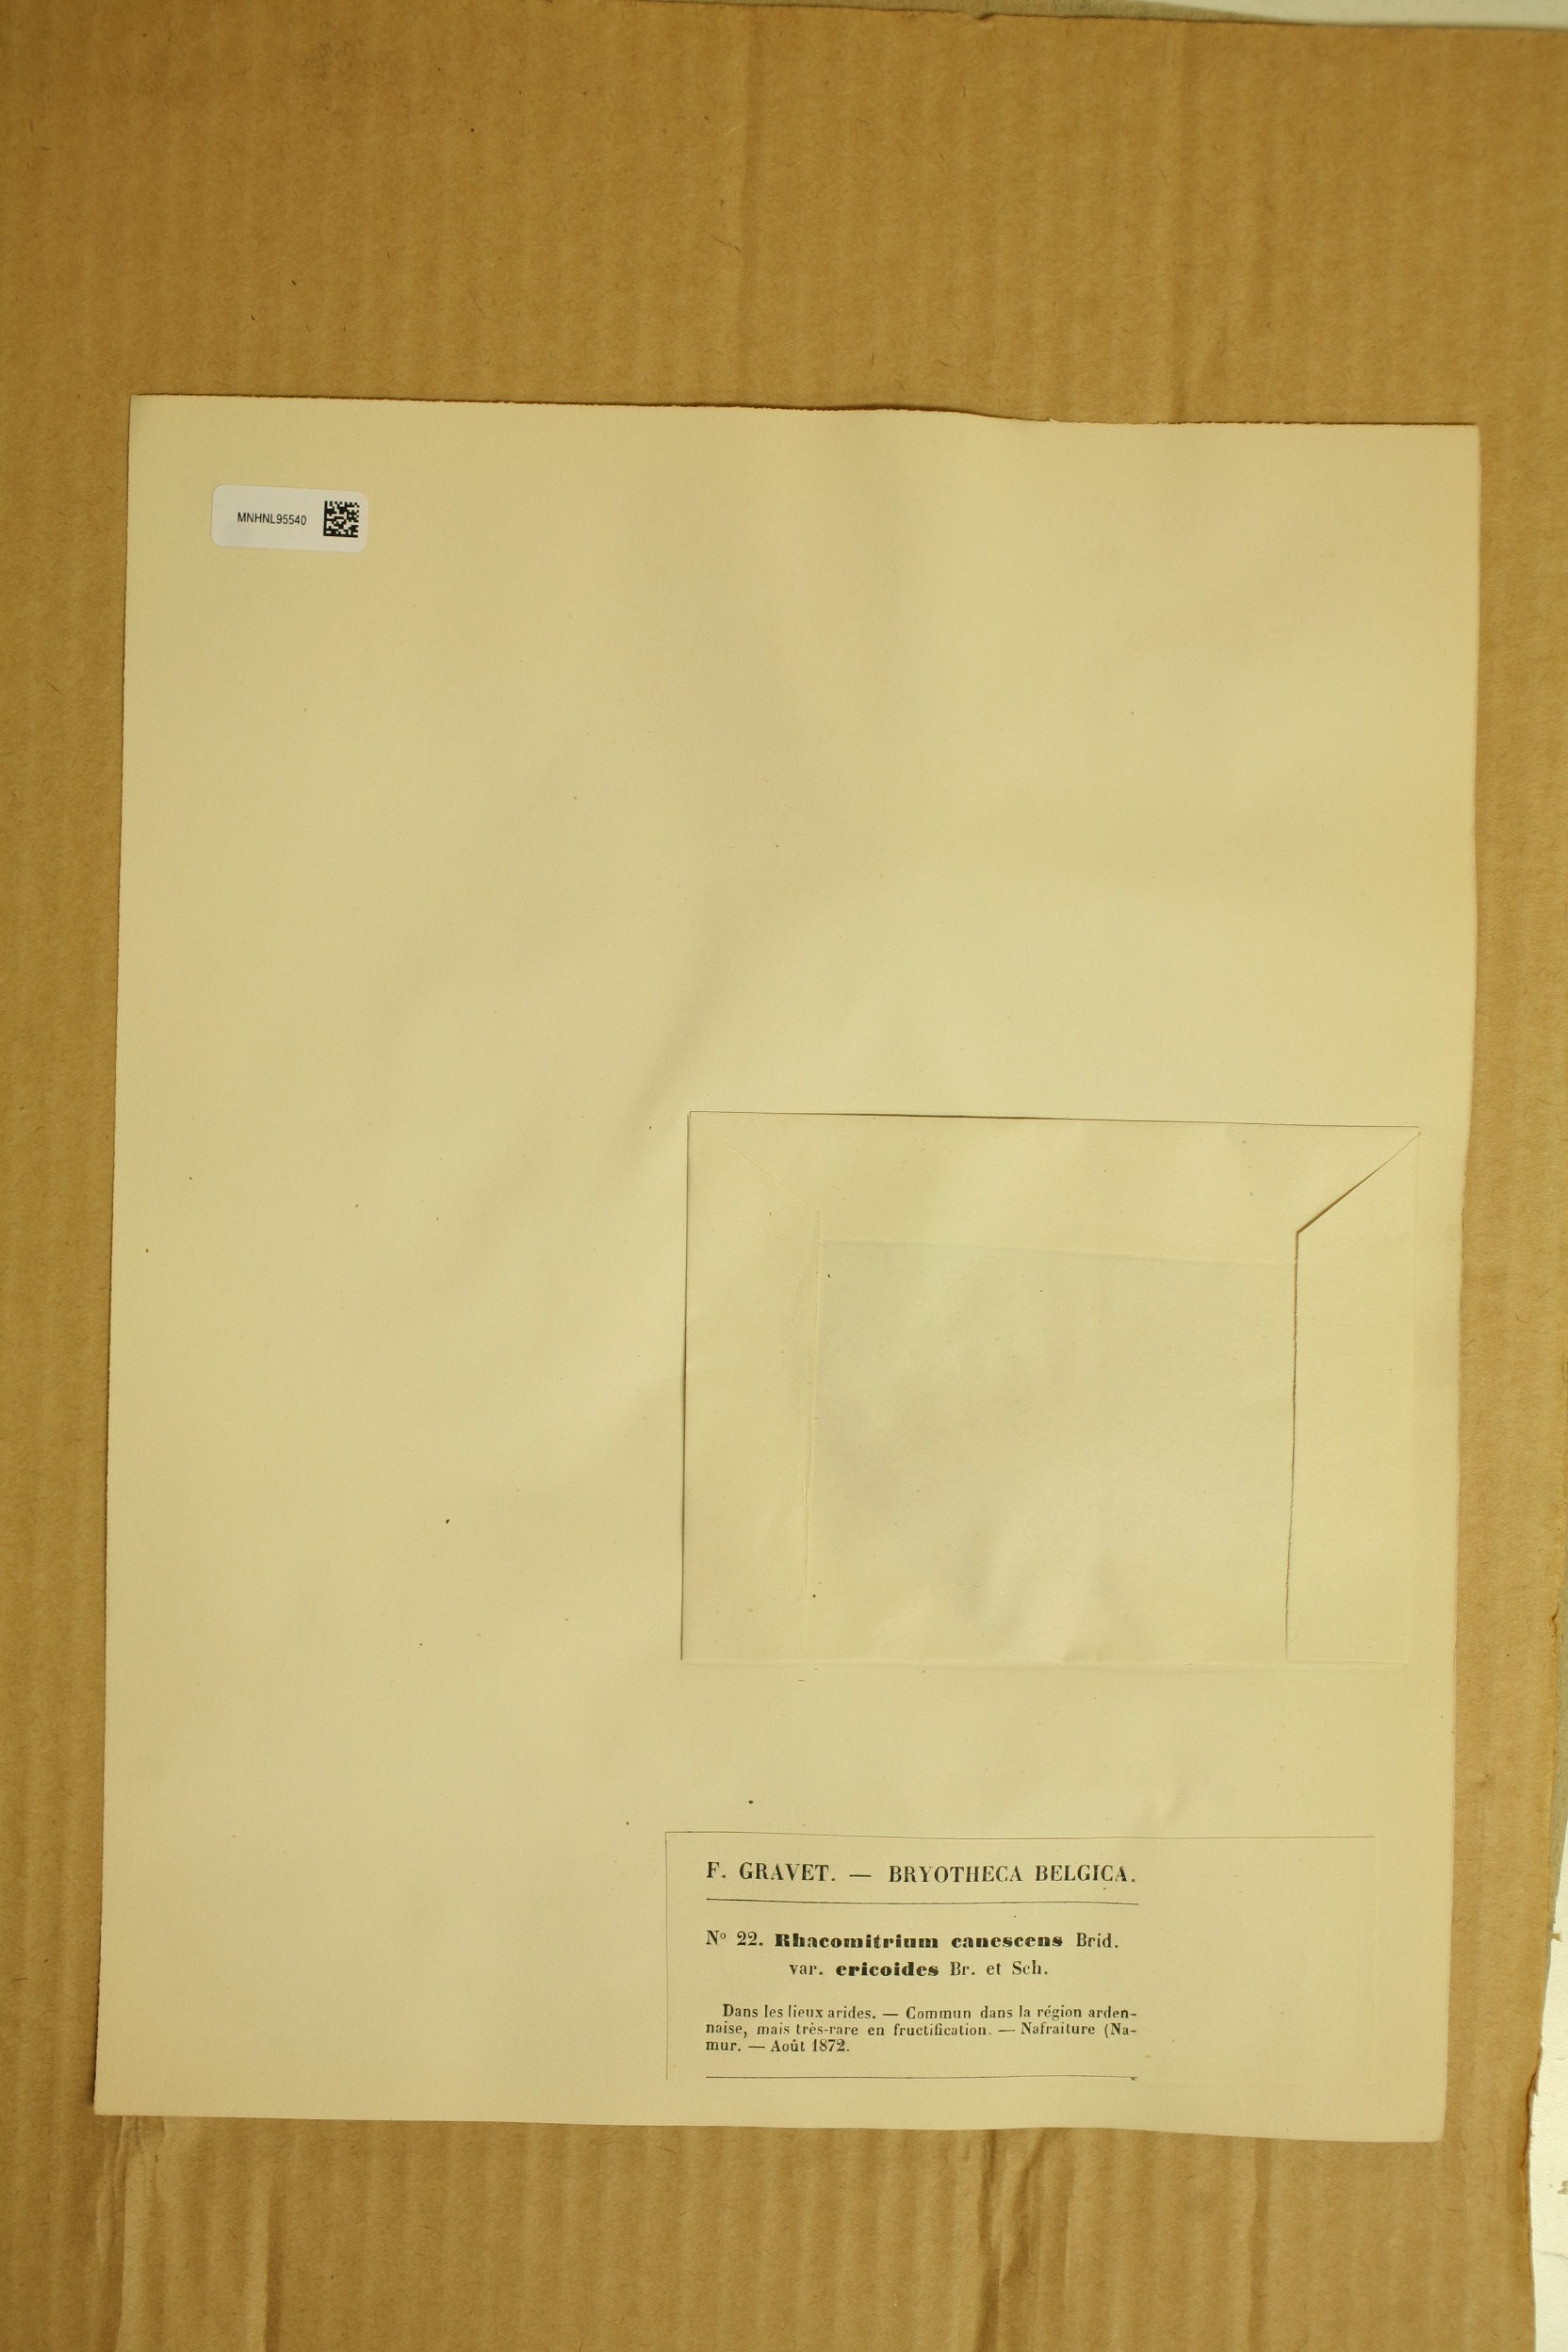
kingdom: Plantae
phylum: Bryophyta
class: Bryopsida
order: Grimmiales
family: Grimmiaceae
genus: Niphotrichum
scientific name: Niphotrichum elongatum
